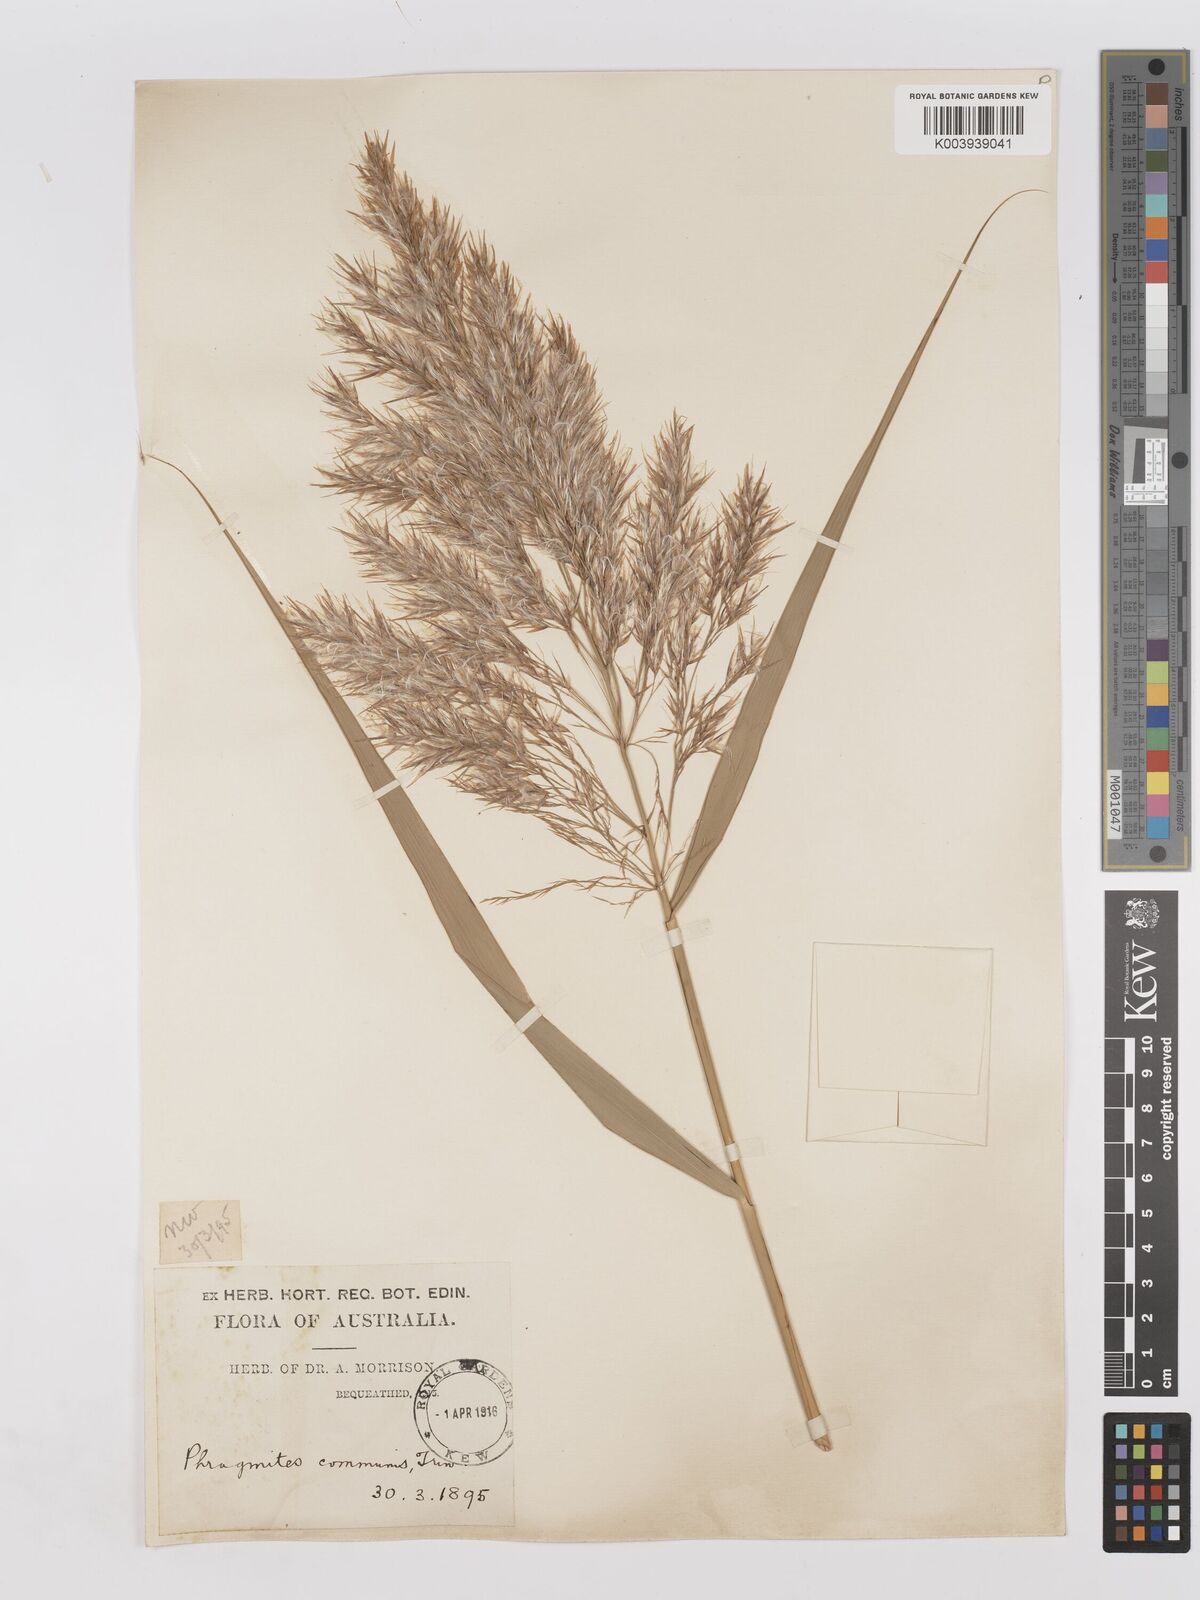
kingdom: Plantae
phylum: Tracheophyta
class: Liliopsida
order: Poales
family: Poaceae
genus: Phragmites
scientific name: Phragmites australis
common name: Common reed
